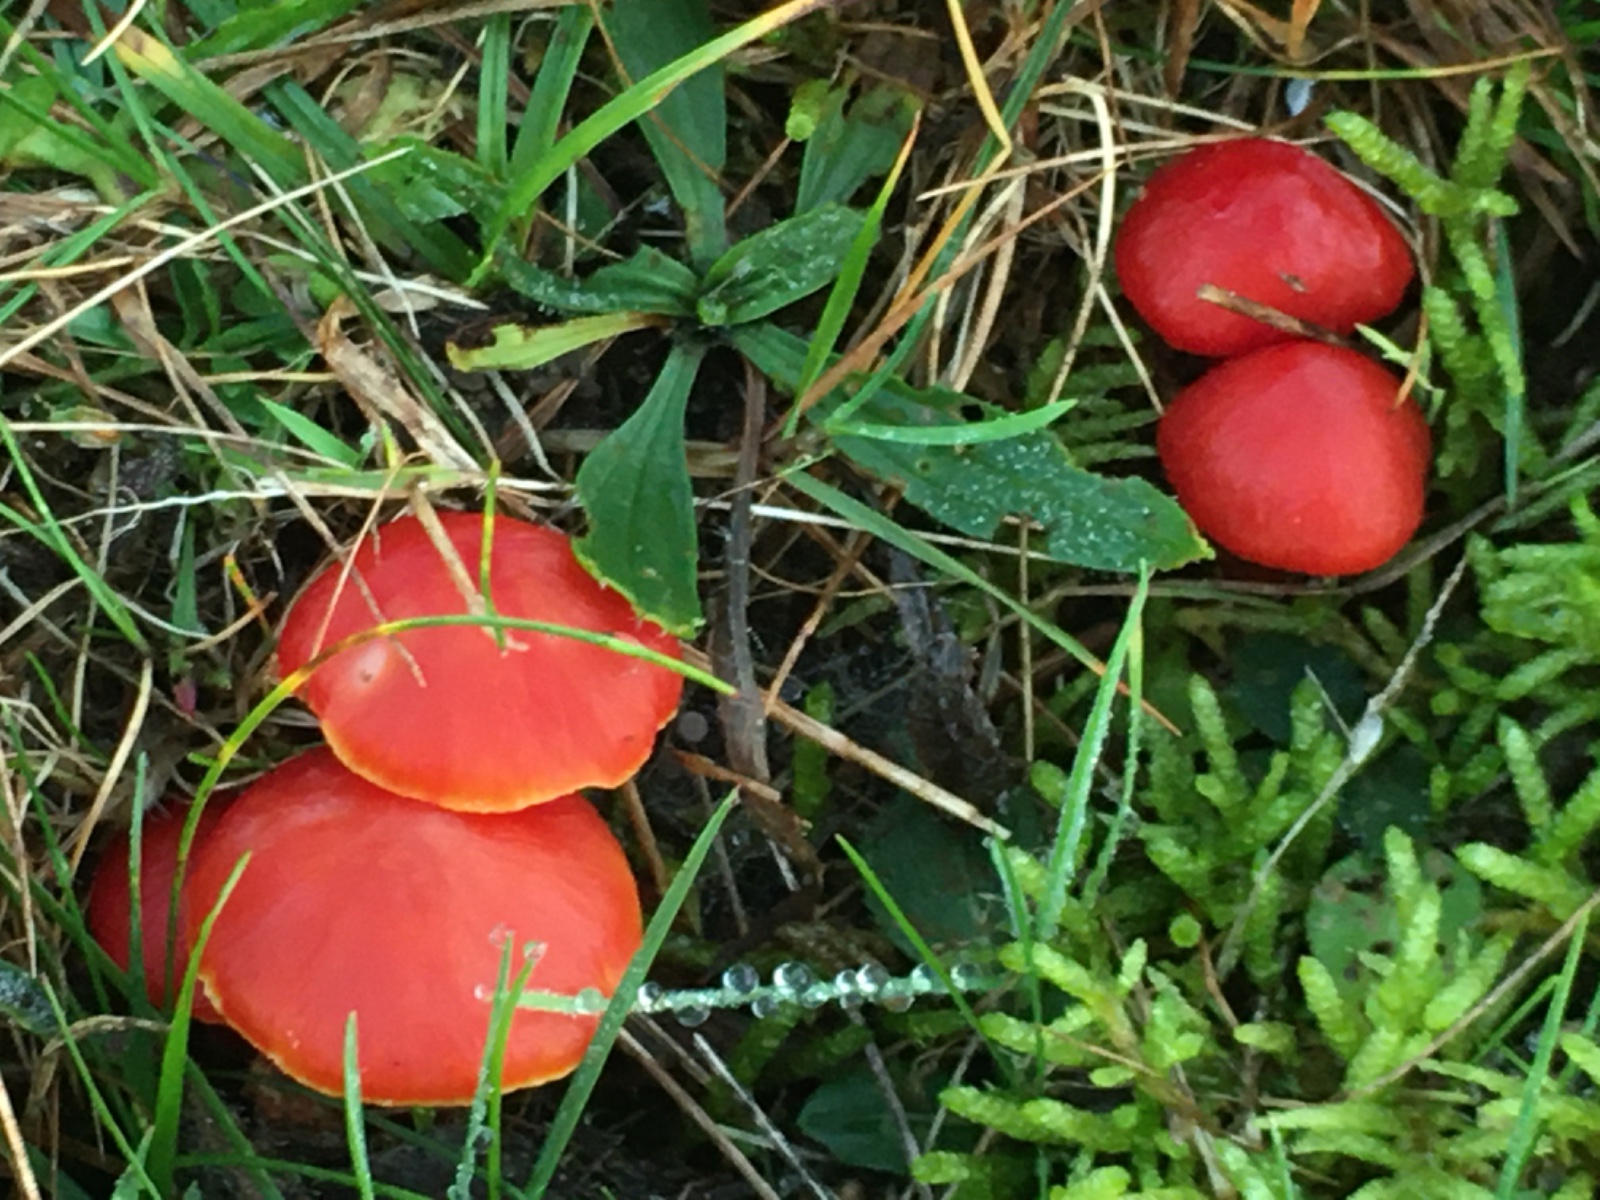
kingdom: Fungi
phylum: Basidiomycota
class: Agaricomycetes
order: Agaricales
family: Hygrophoraceae
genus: Hygrocybe
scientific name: Hygrocybe coccinea
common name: cinnober-vokshat
